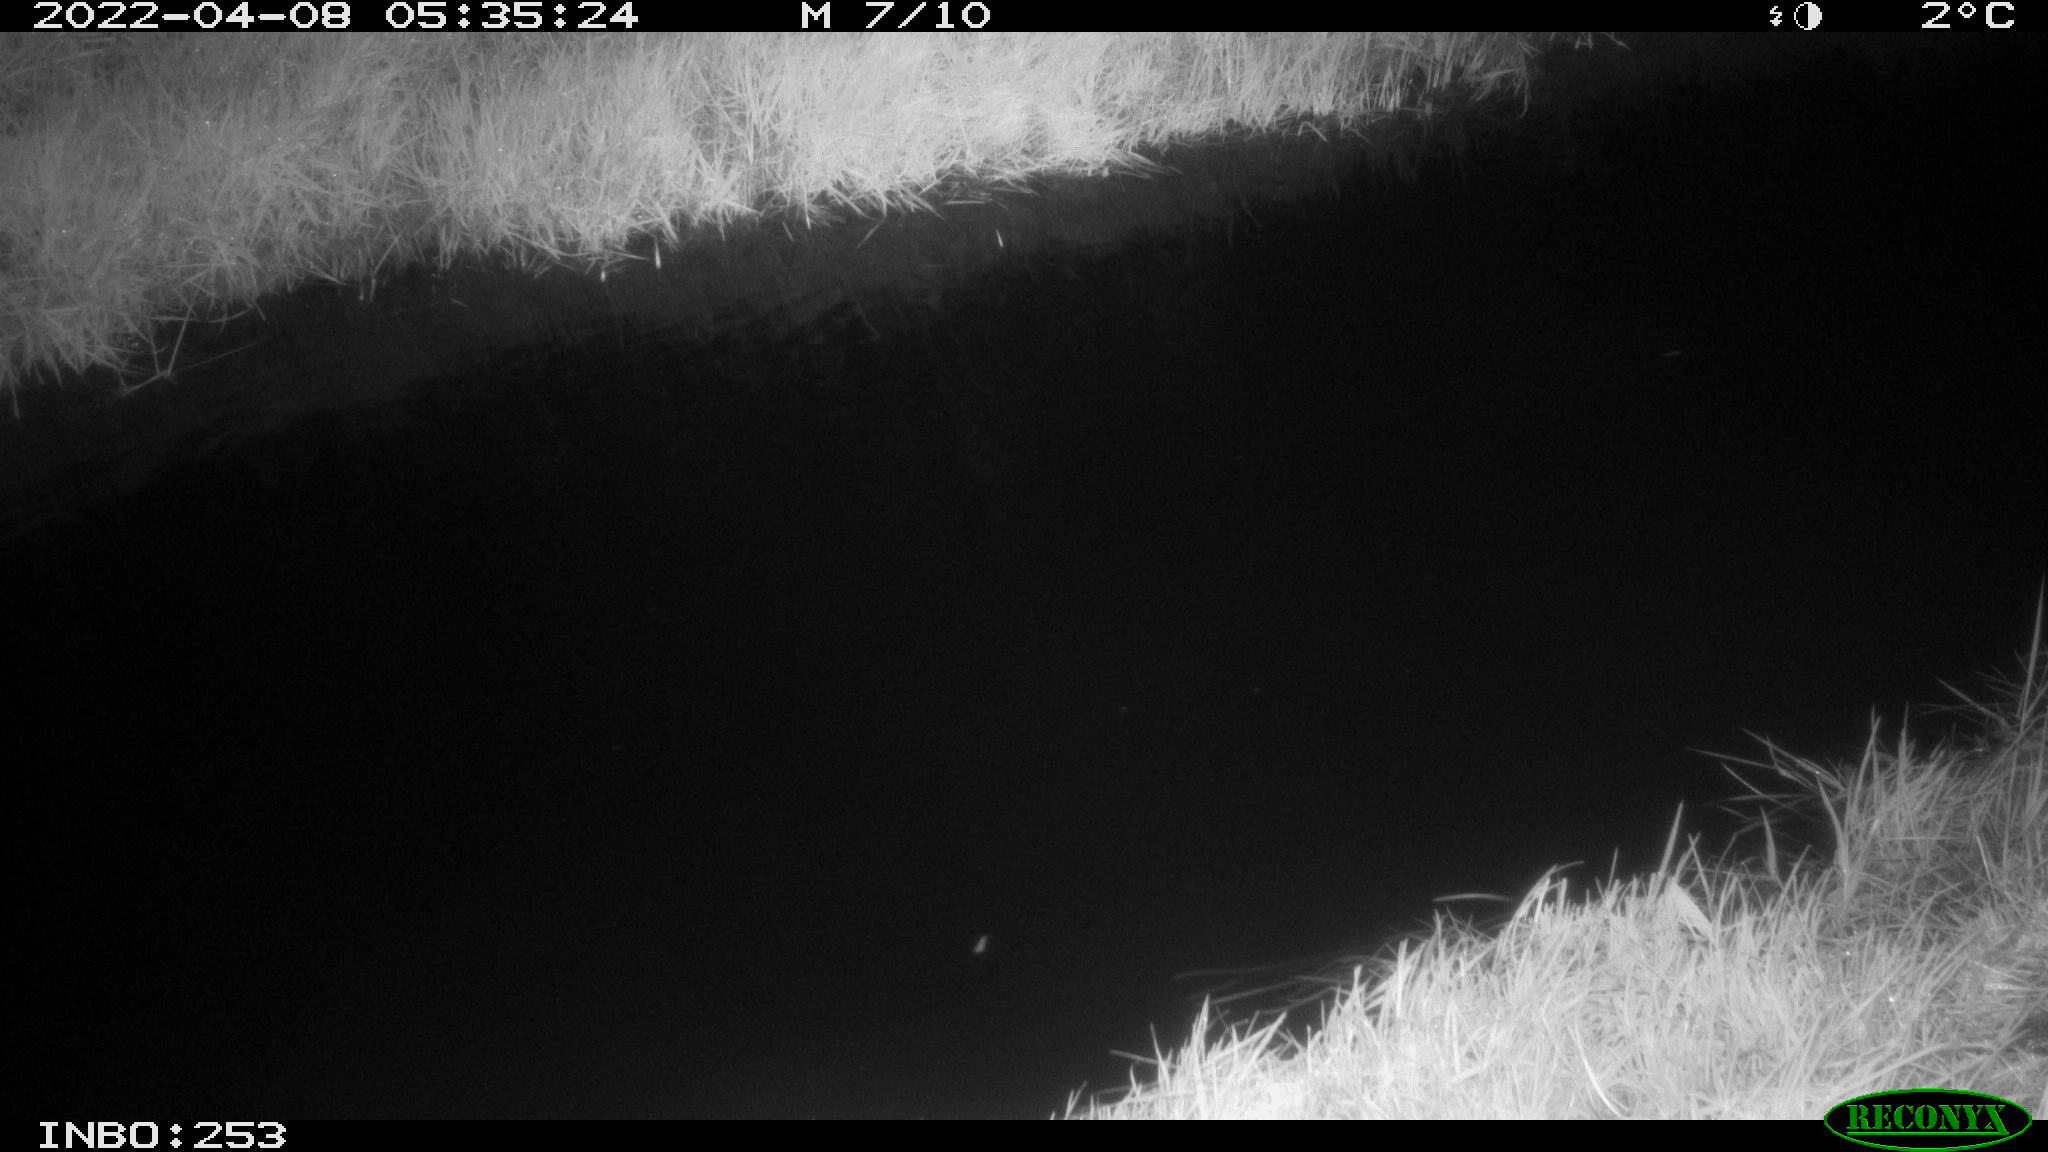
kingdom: Animalia
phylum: Chordata
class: Aves
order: Anseriformes
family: Anatidae
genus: Anas
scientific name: Anas platyrhynchos
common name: Mallard
